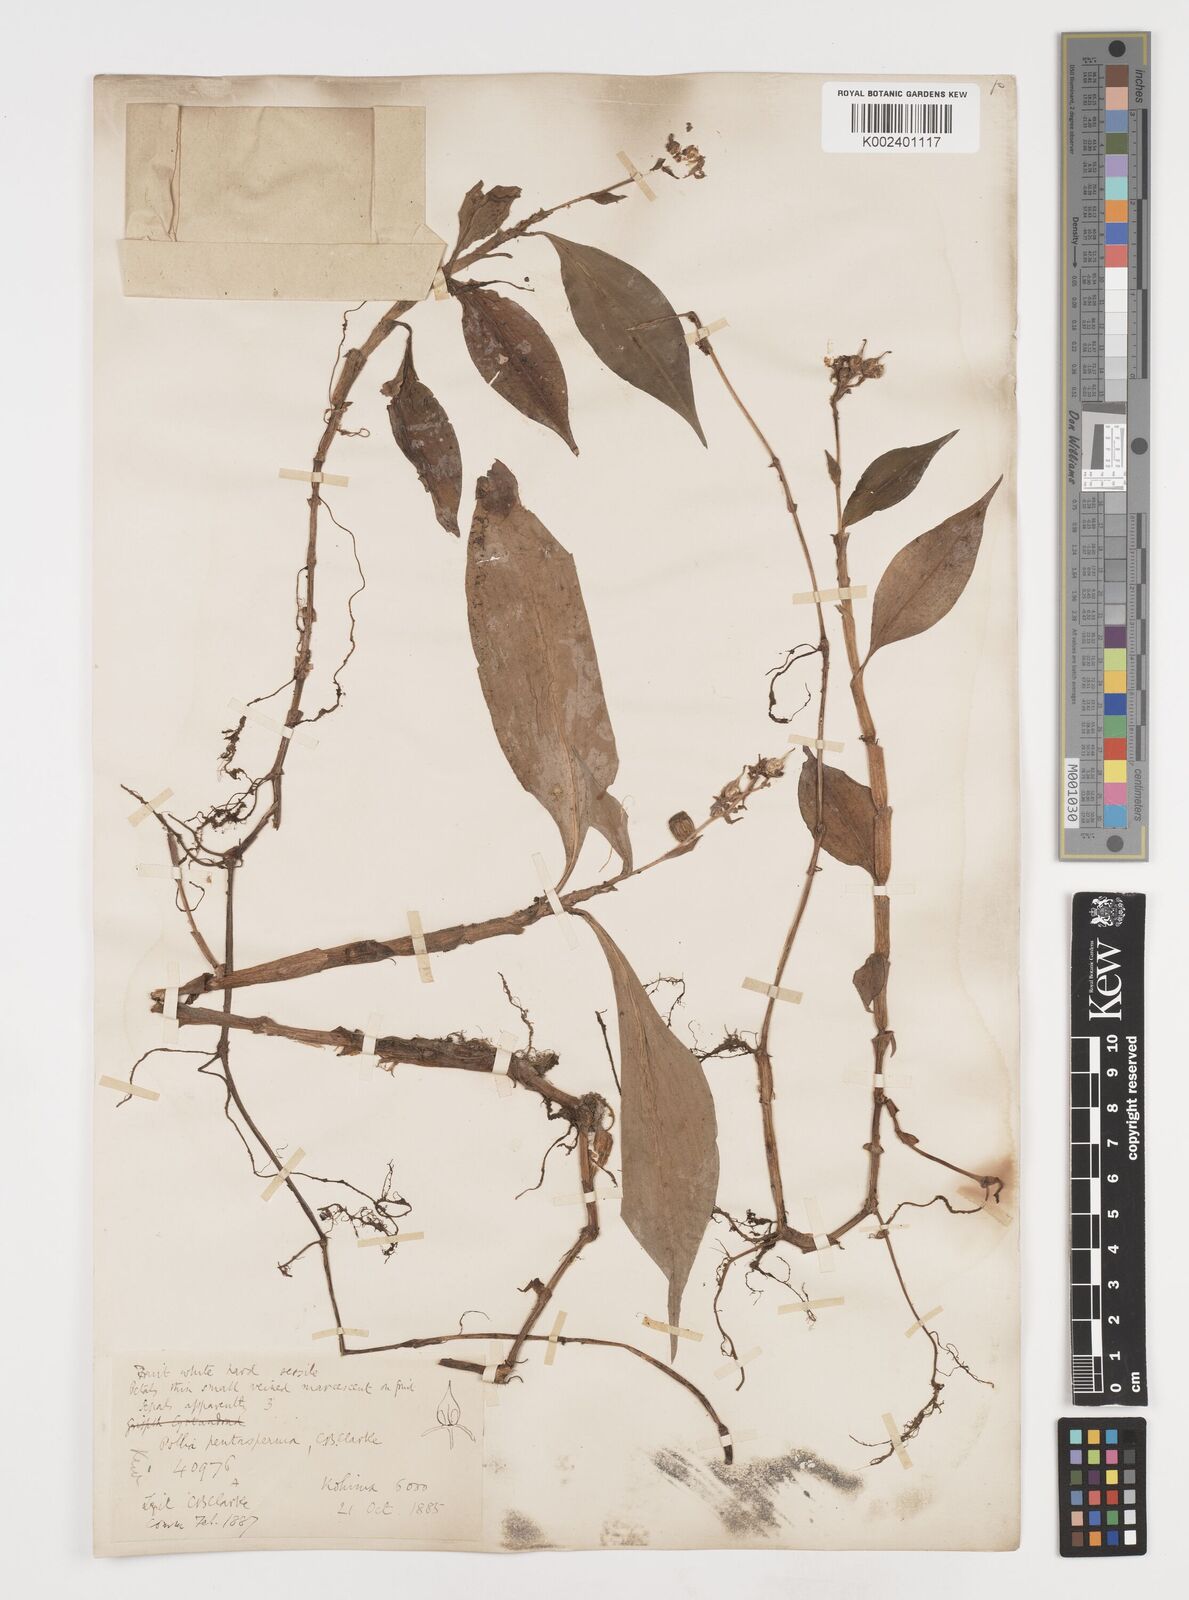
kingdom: Plantae
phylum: Tracheophyta
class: Liliopsida
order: Commelinales
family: Commelinaceae
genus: Pollia
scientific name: Pollia pentasperma
